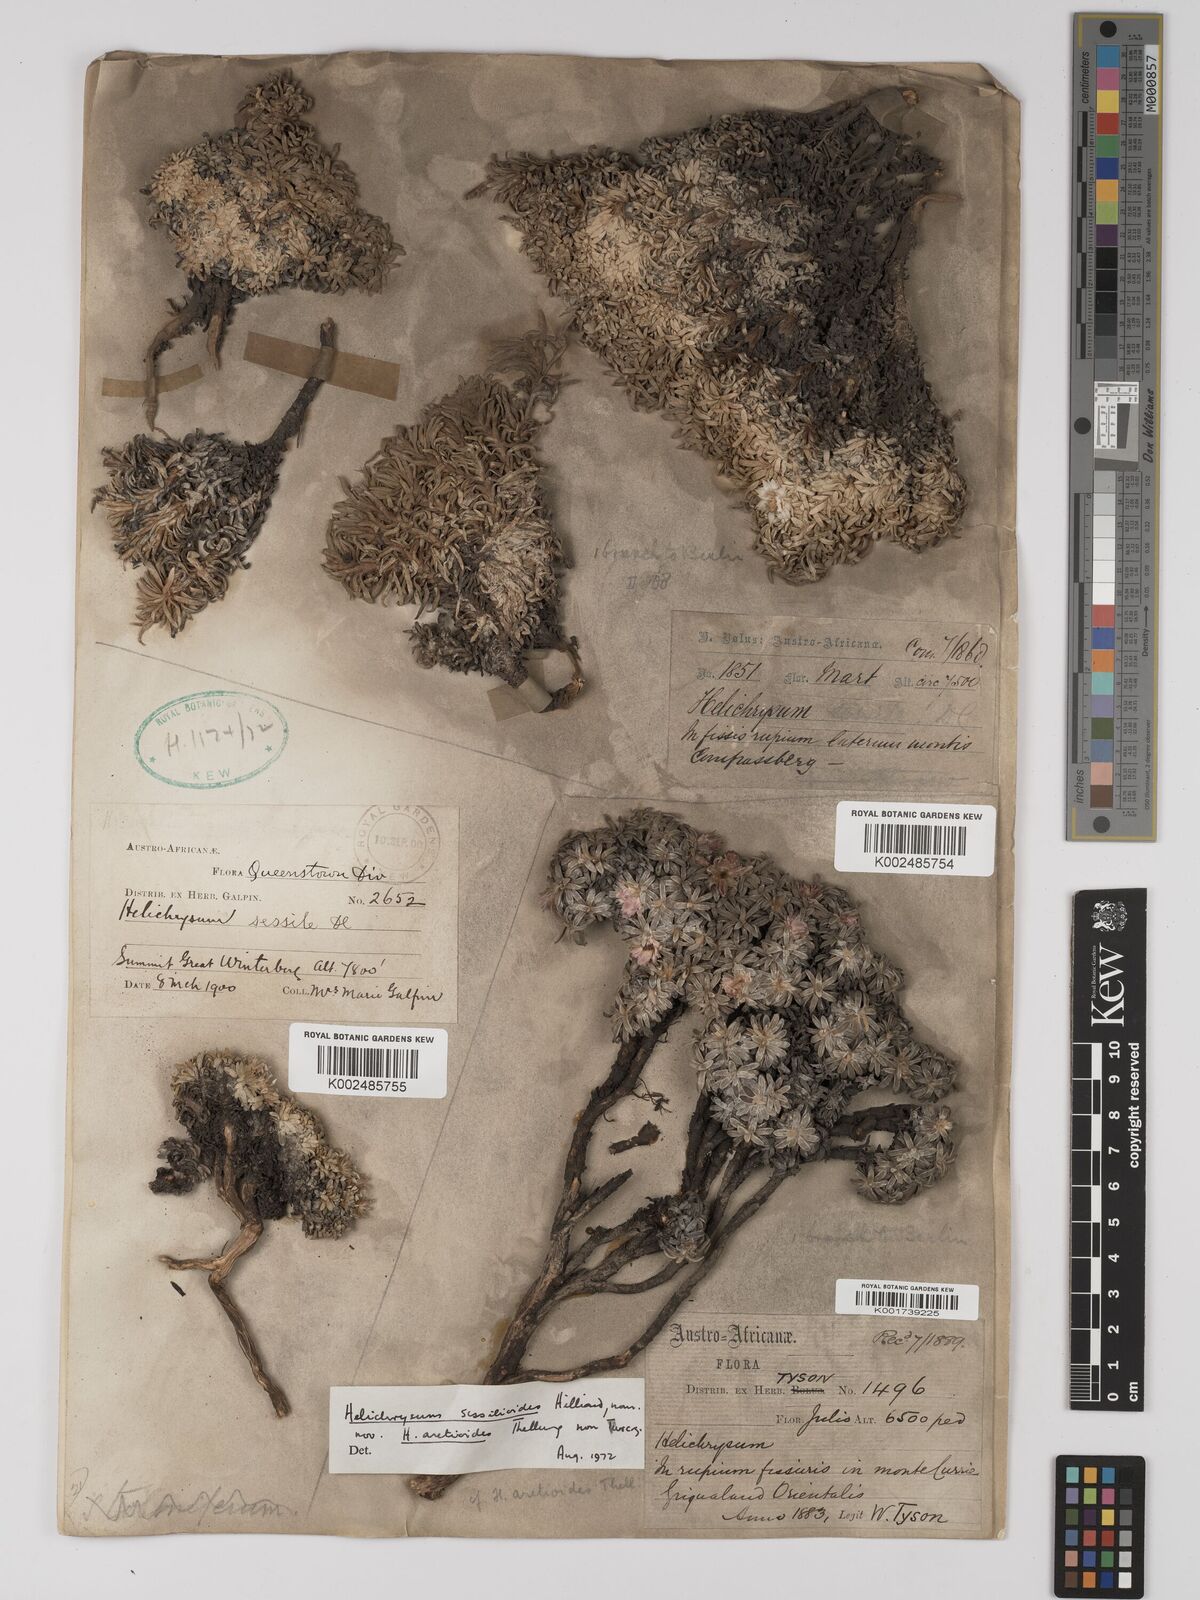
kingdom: Plantae
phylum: Tracheophyta
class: Magnoliopsida
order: Asterales
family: Asteraceae
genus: Helichrysum
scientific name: Helichrysum sessilioides
